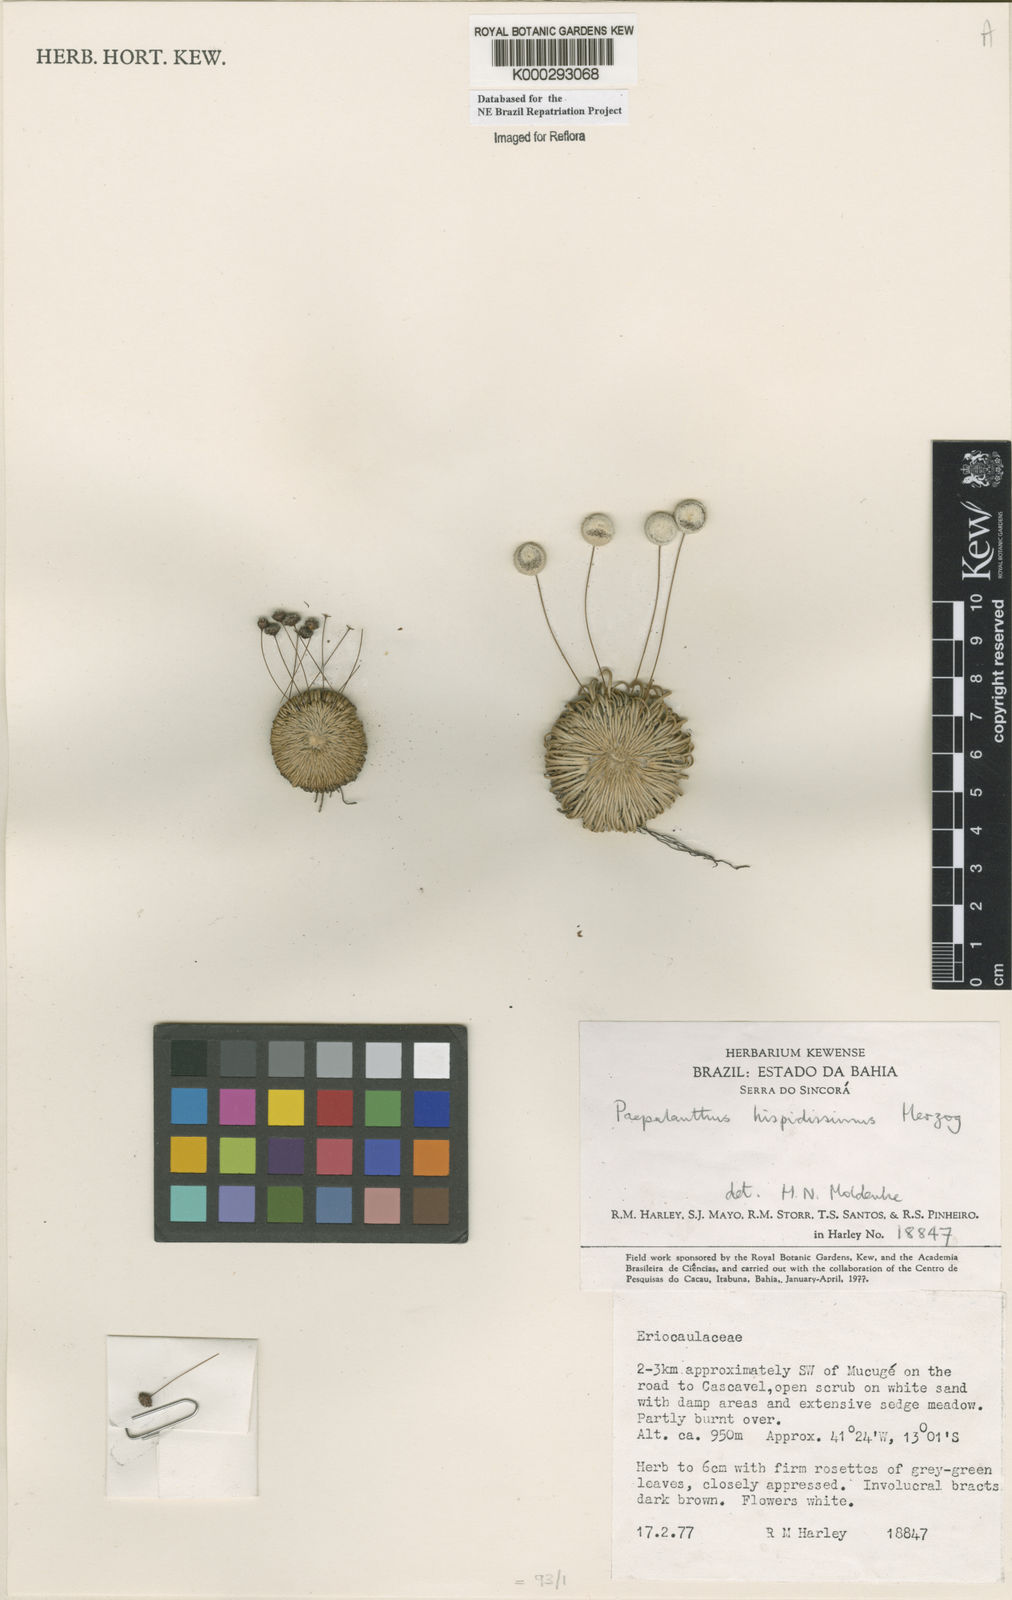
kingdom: Plantae
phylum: Tracheophyta
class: Liliopsida
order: Poales
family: Eriocaulaceae
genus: Paepalanthus
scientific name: Paepalanthus pulvinatus
